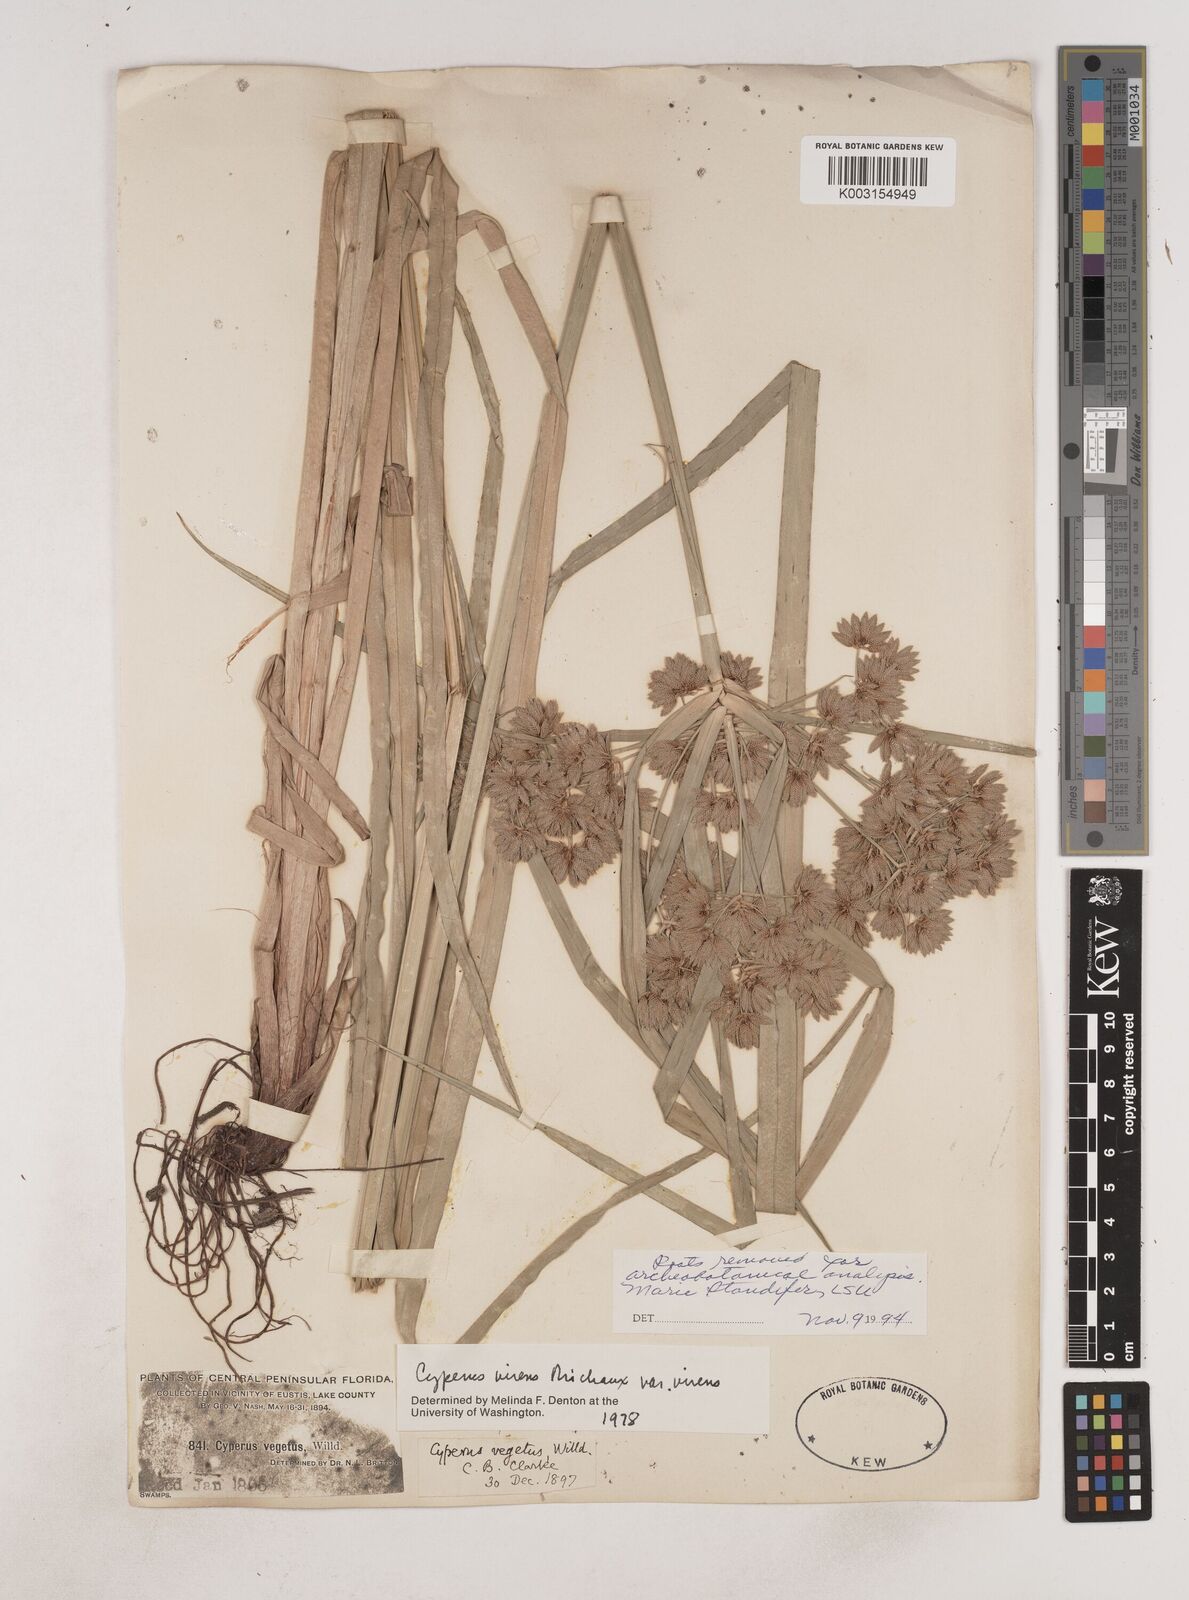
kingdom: Plantae
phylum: Tracheophyta
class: Liliopsida
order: Poales
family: Cyperaceae
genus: Cyperus
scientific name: Cyperus virens
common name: Green flatsedge
